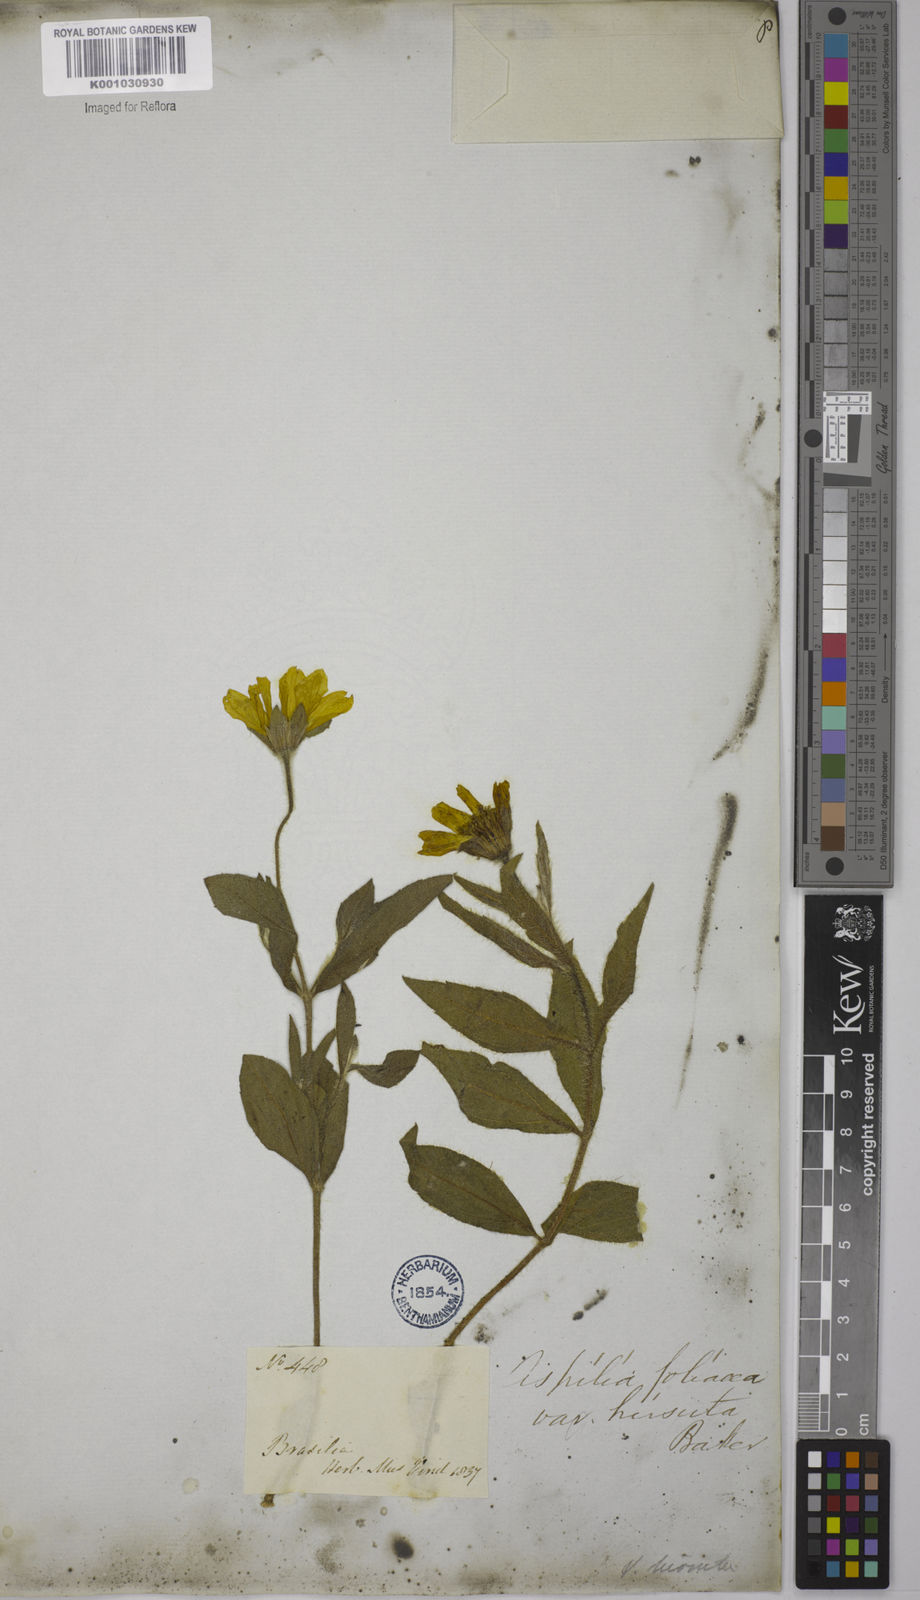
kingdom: Plantae
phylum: Tracheophyta
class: Magnoliopsida
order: Asterales
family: Asteraceae
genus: Wedelia
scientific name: Wedelia foliacea
